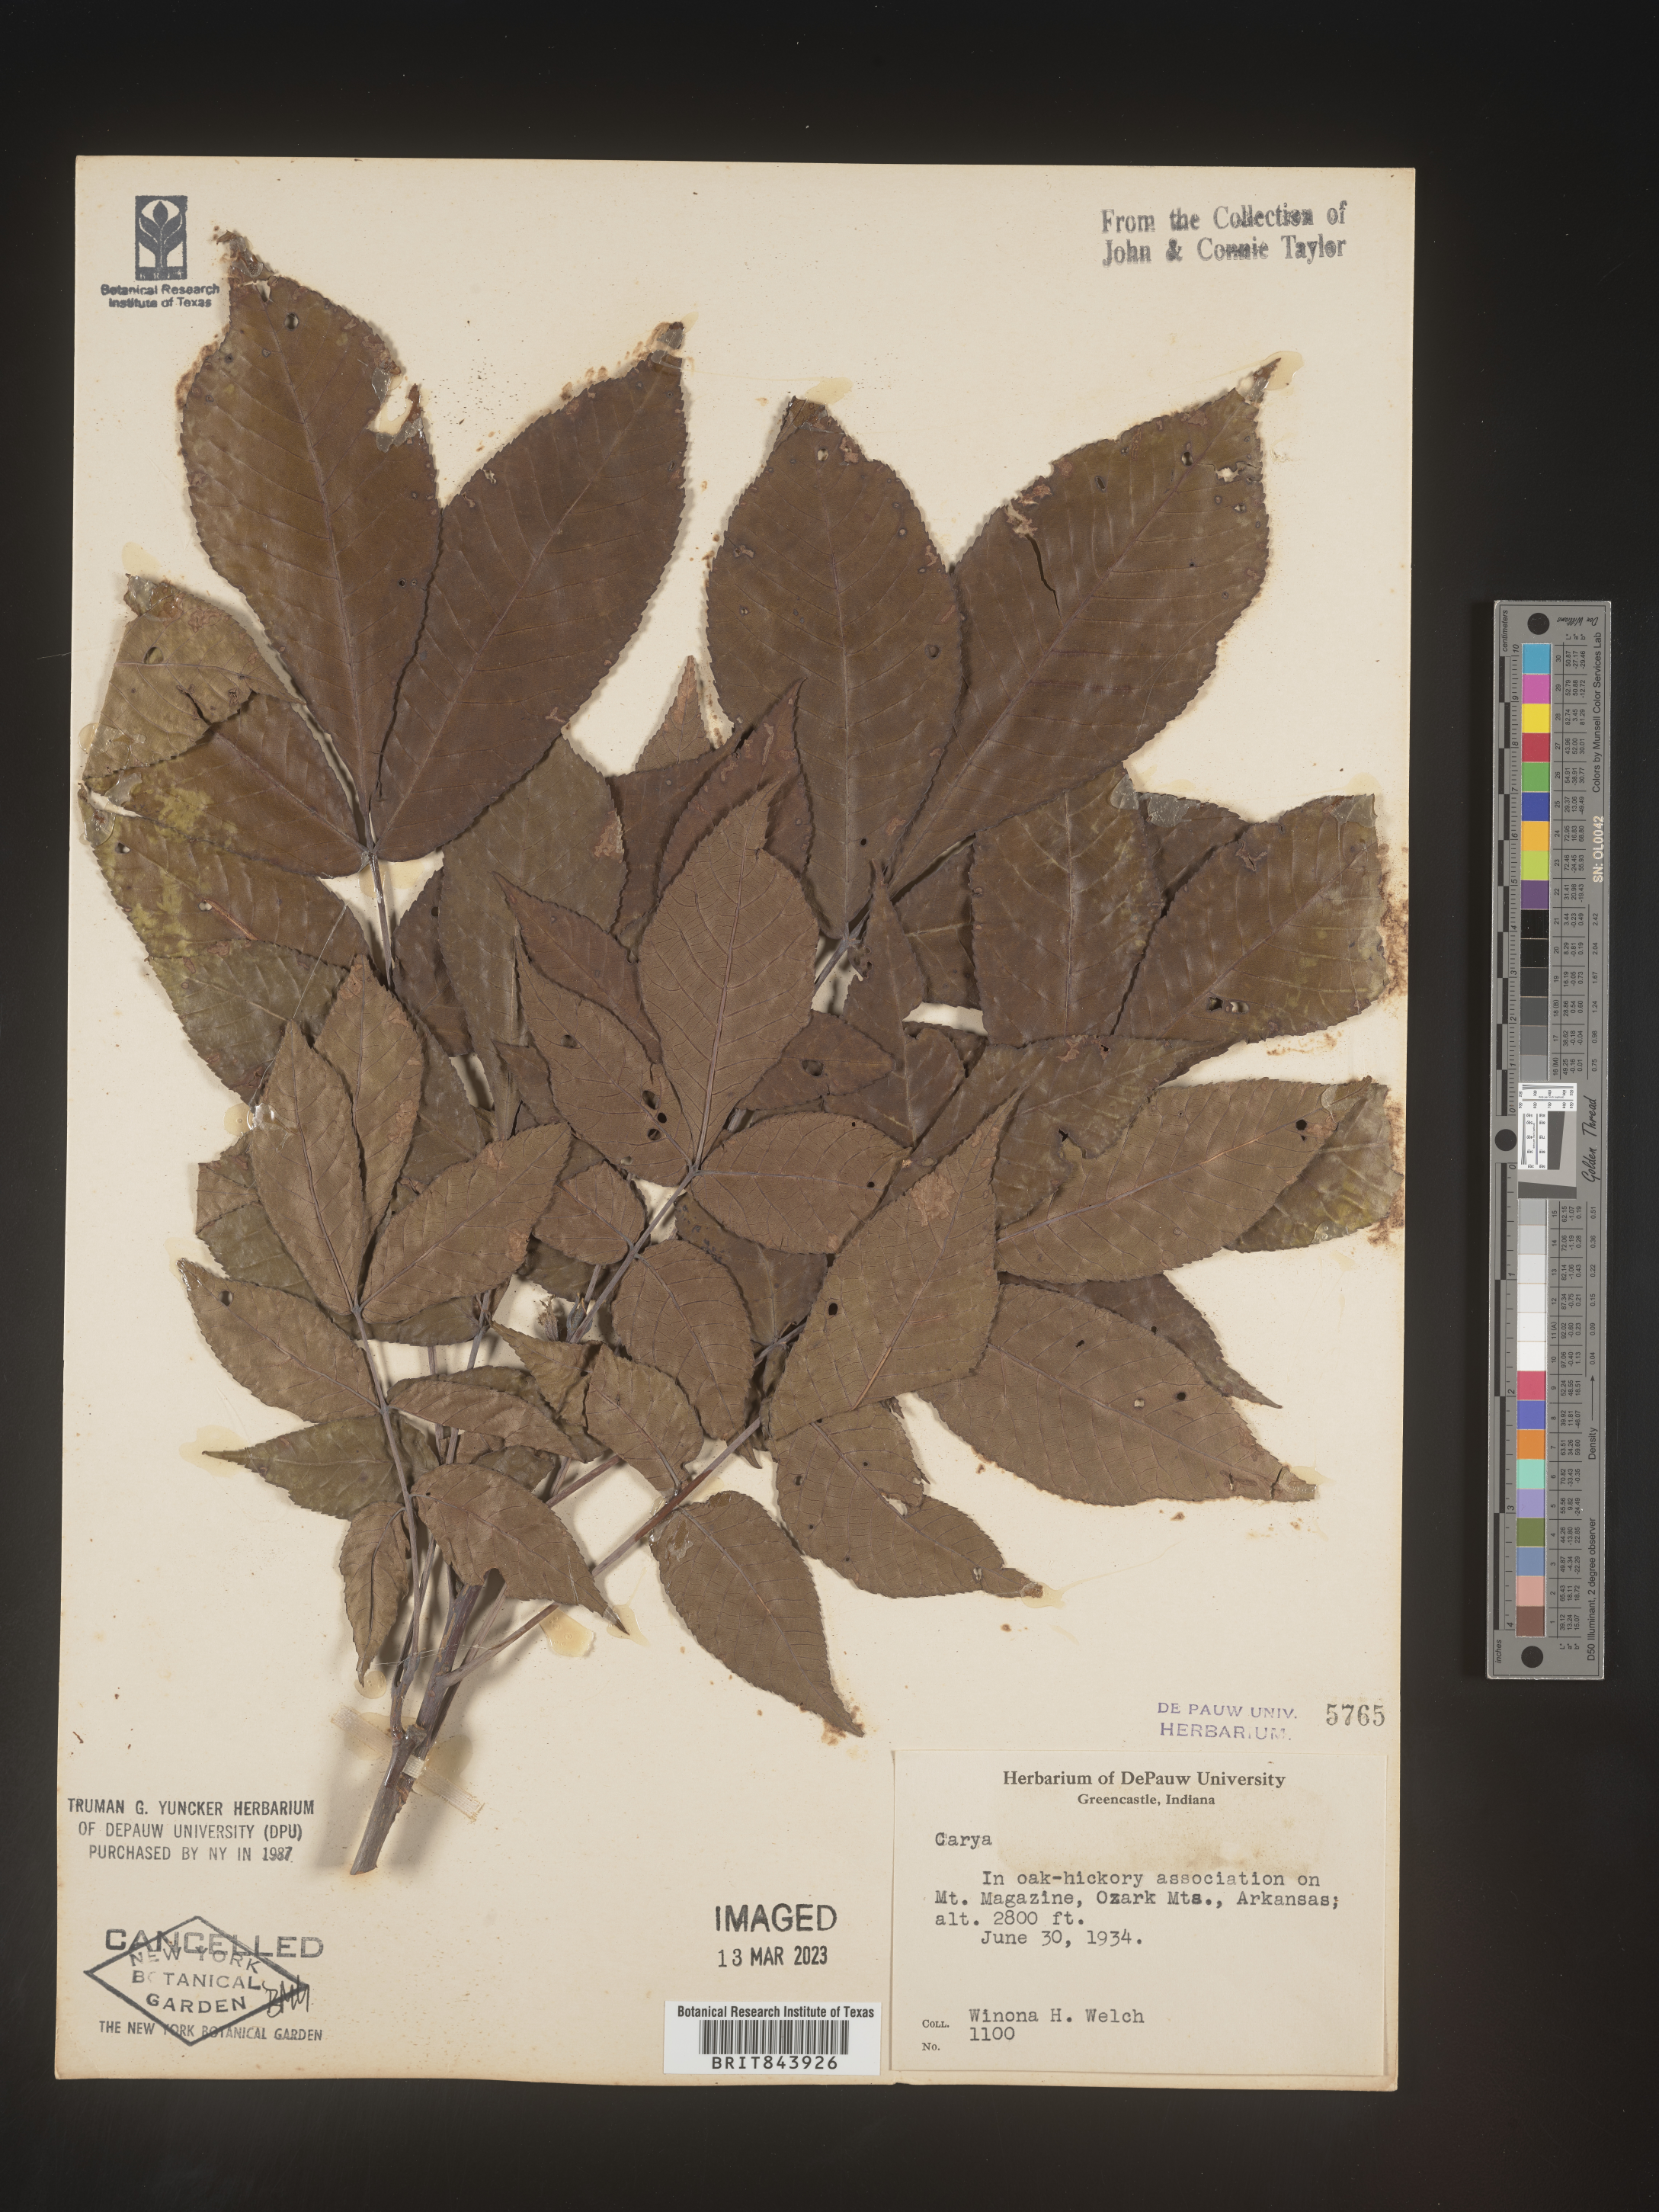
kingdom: Plantae
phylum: Tracheophyta
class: Magnoliopsida
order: Fagales
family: Juglandaceae
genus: Carya
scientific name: Carya
